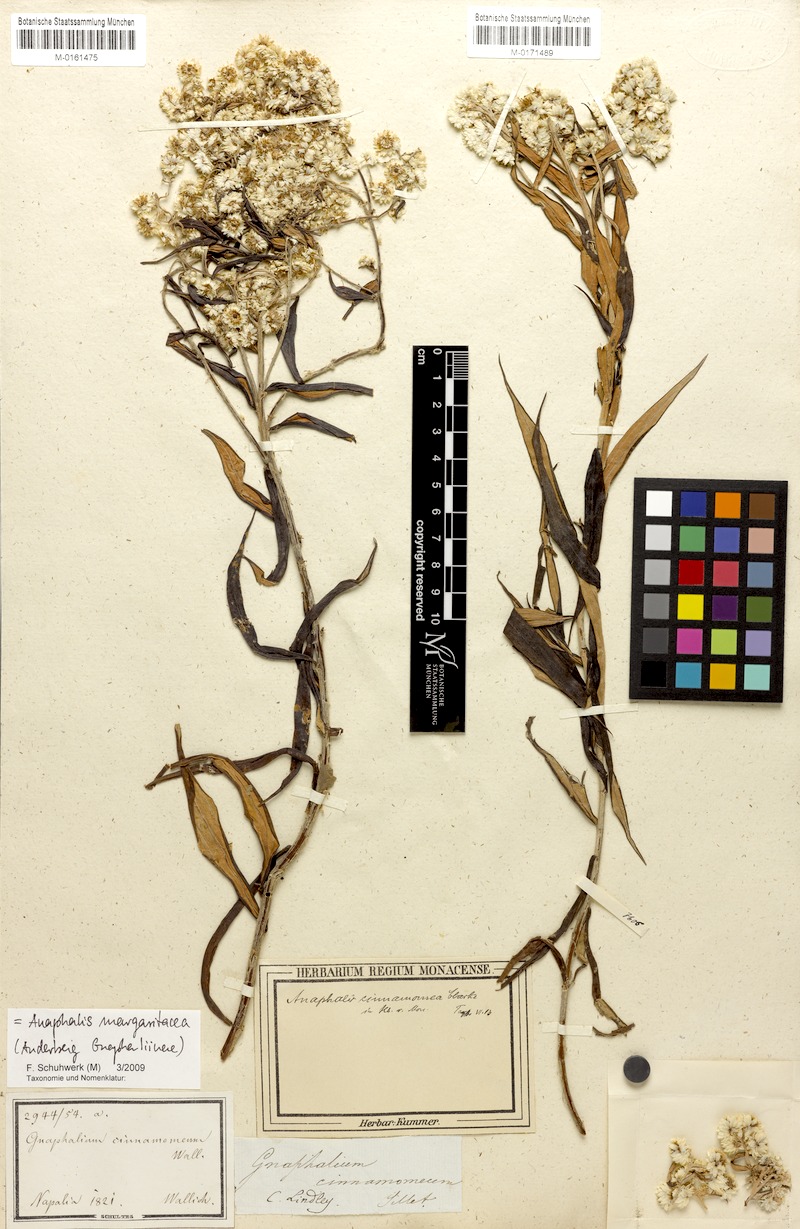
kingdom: Plantae
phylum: Tracheophyta
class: Magnoliopsida
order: Asterales
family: Asteraceae
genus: Anaphalis
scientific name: Anaphalis marcescens
